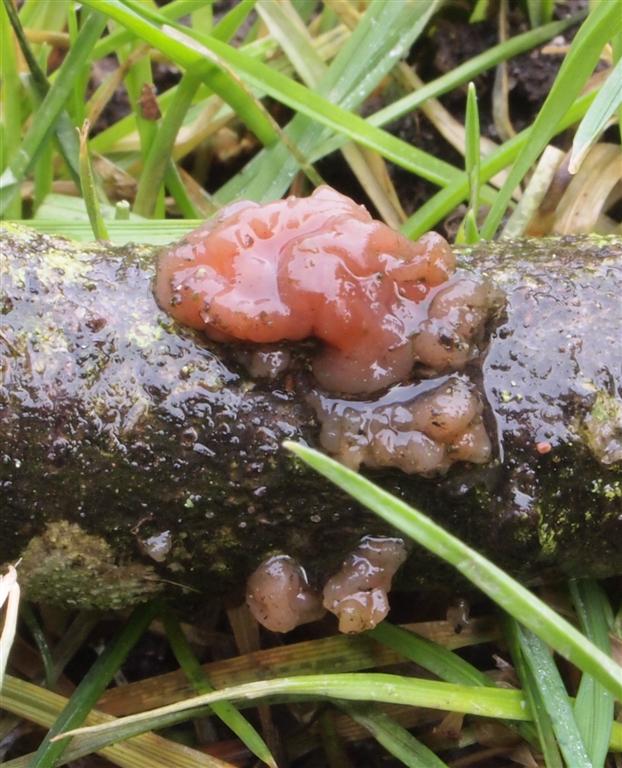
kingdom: Fungi
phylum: Basidiomycota
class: Agaricomycetes
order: Auriculariales
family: Hyaloriaceae
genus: Myxarium
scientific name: Myxarium nucleatum
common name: klar bævretop
